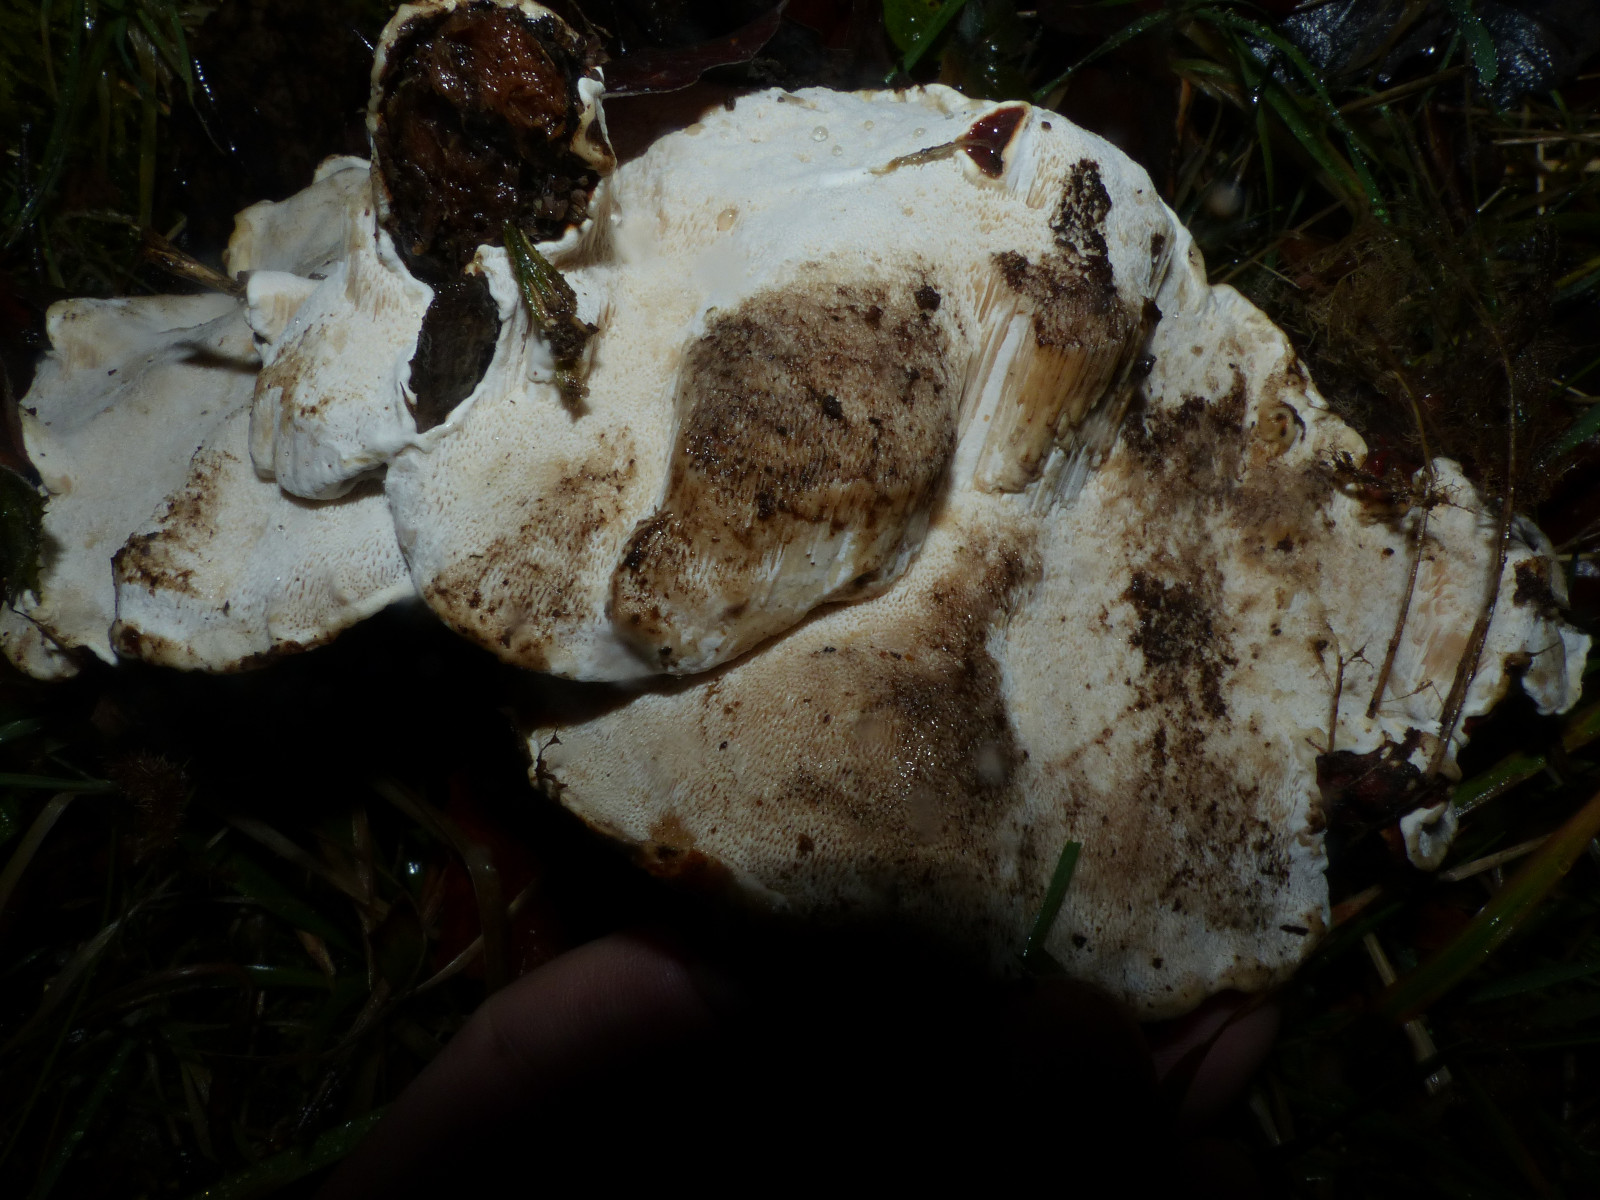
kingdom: Fungi
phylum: Basidiomycota
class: Agaricomycetes
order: Russulales
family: Bondarzewiaceae
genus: Heterobasidion
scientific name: Heterobasidion annosum
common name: almindelig rodfordærver
